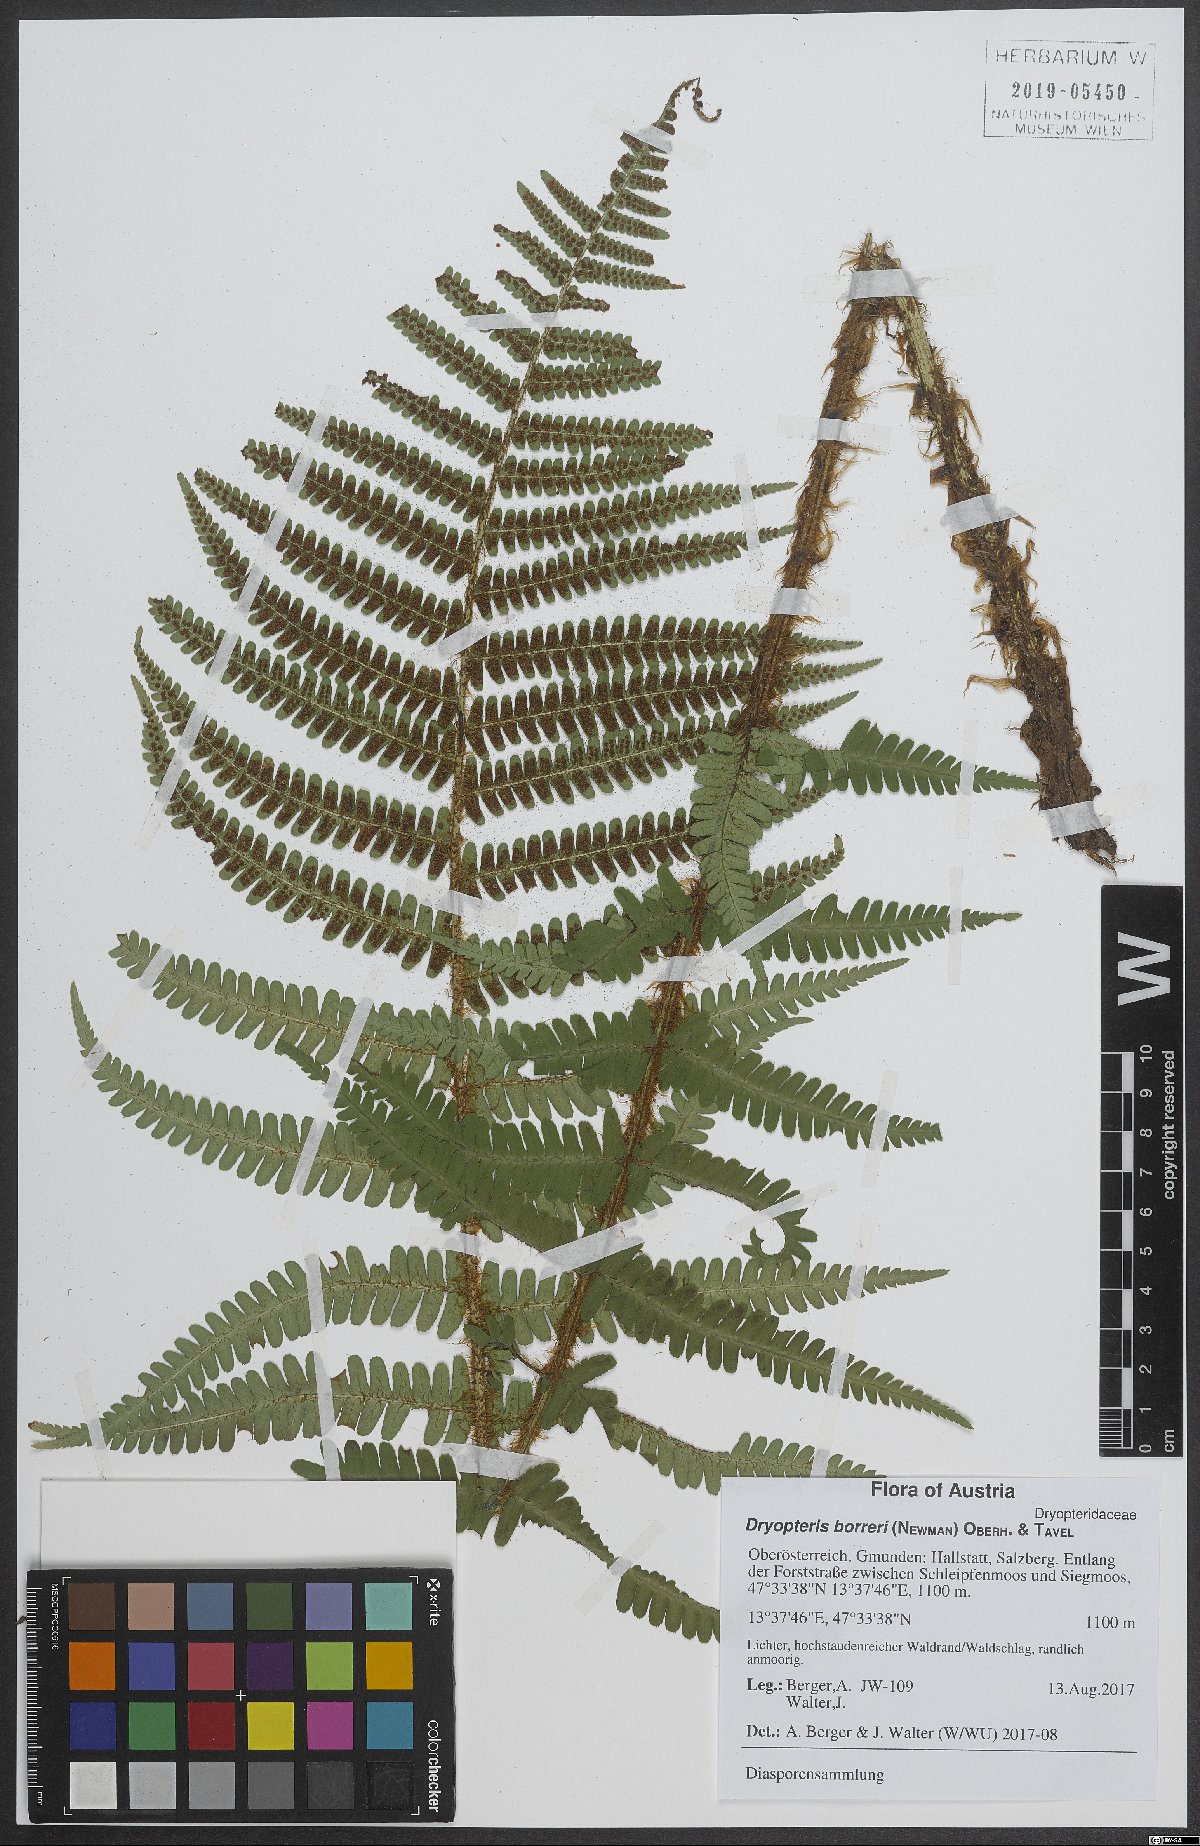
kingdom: Plantae
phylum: Tracheophyta
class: Polypodiopsida
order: Polypodiales
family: Dryopteridaceae
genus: Dryopteris
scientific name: Dryopteris borreri
